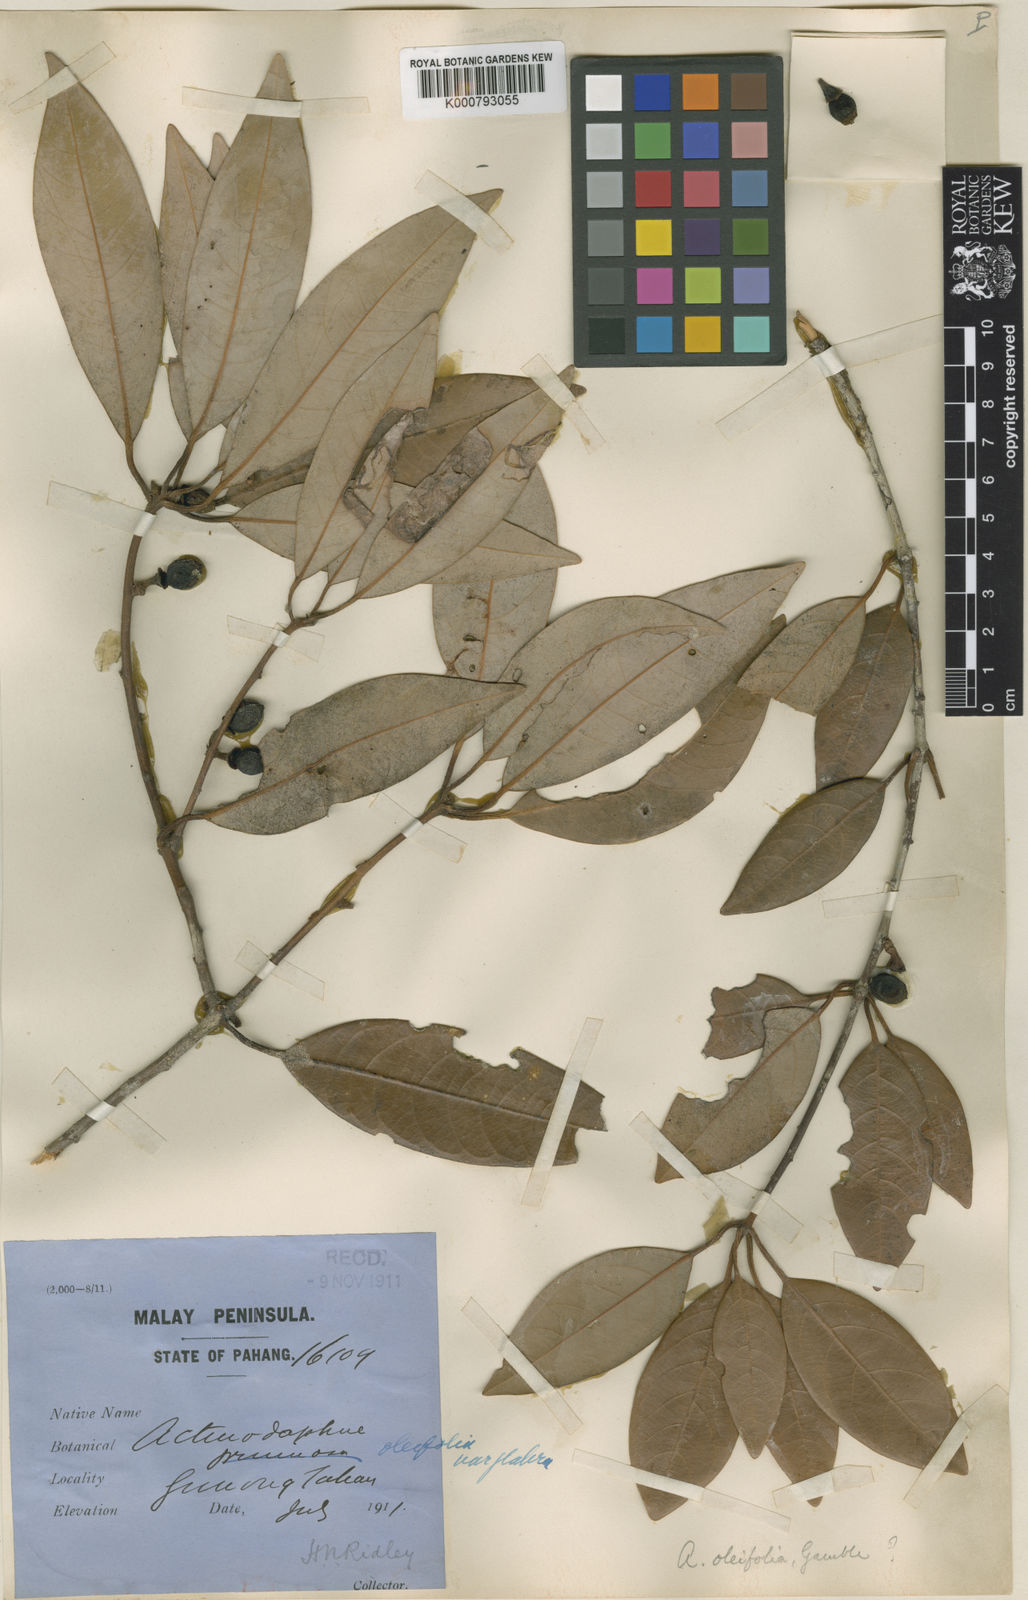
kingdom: Plantae
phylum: Tracheophyta
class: Magnoliopsida
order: Laurales
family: Lauraceae
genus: Actinodaphne
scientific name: Actinodaphne oleifolia
